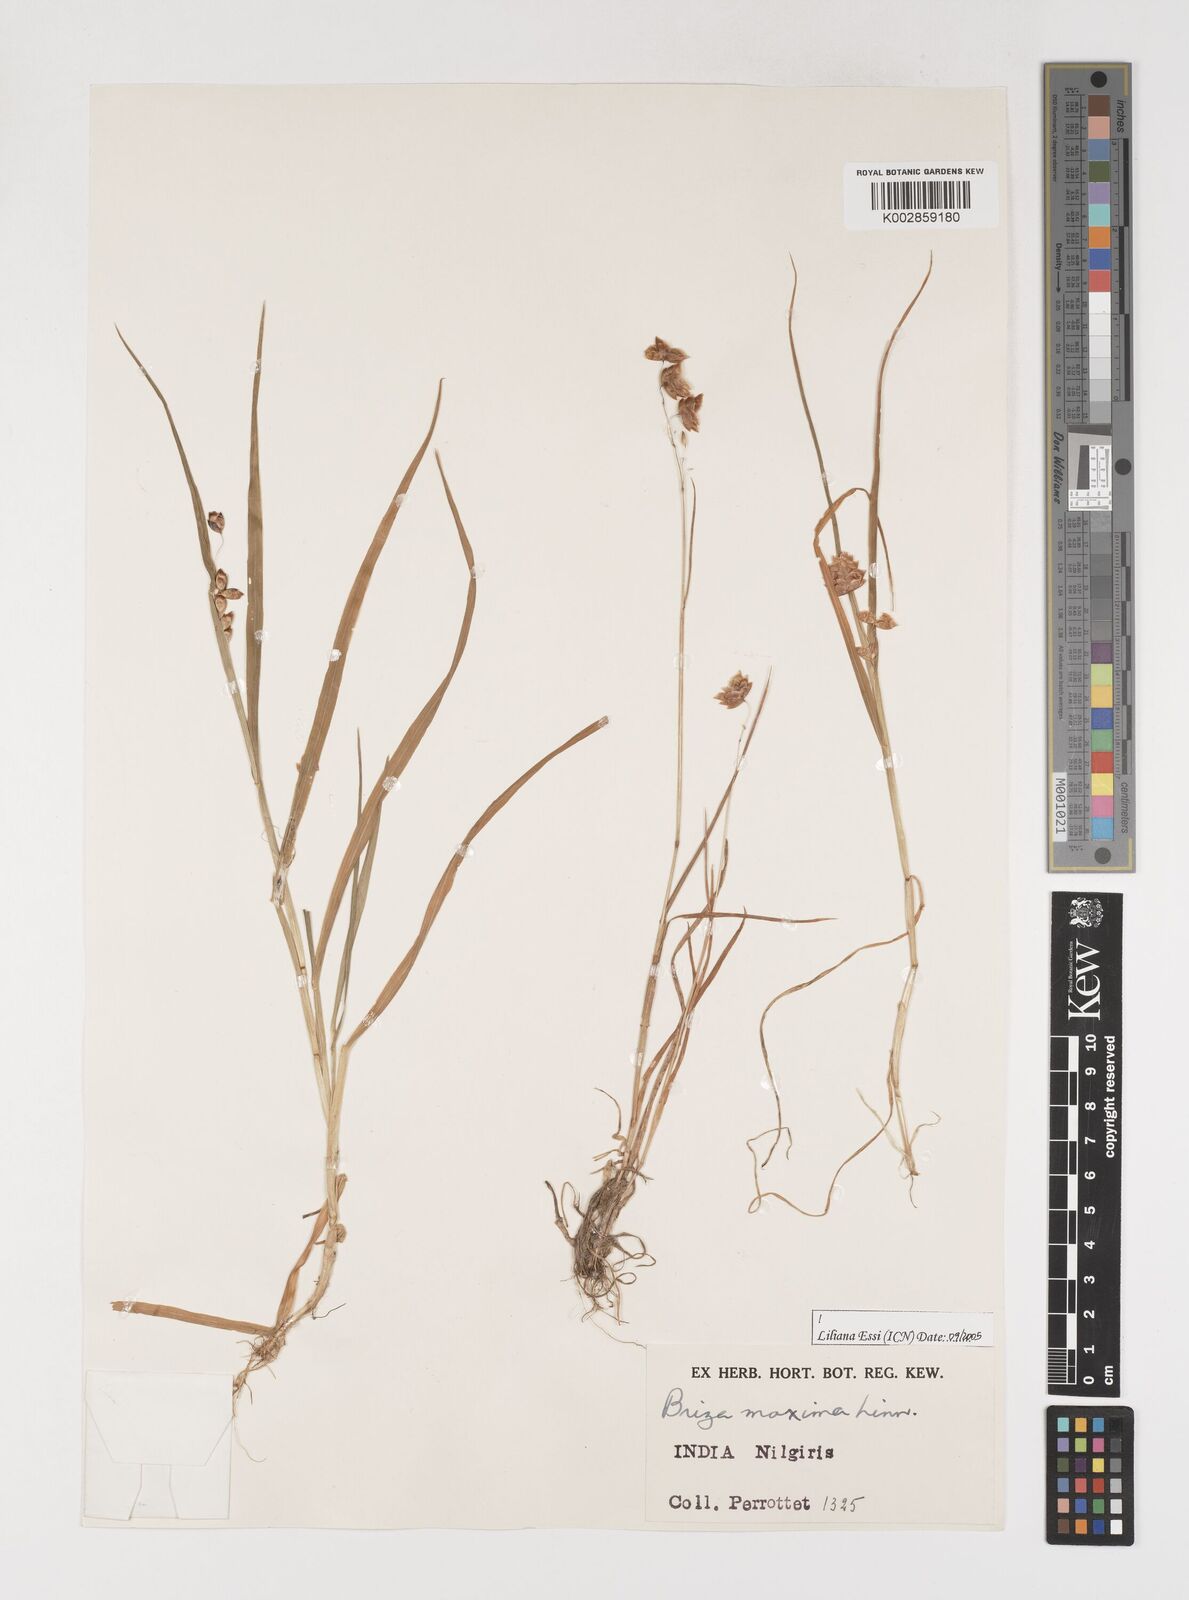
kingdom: Plantae
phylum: Tracheophyta
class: Liliopsida
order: Poales
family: Poaceae
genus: Briza
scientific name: Briza maxima
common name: Big quakinggrass
